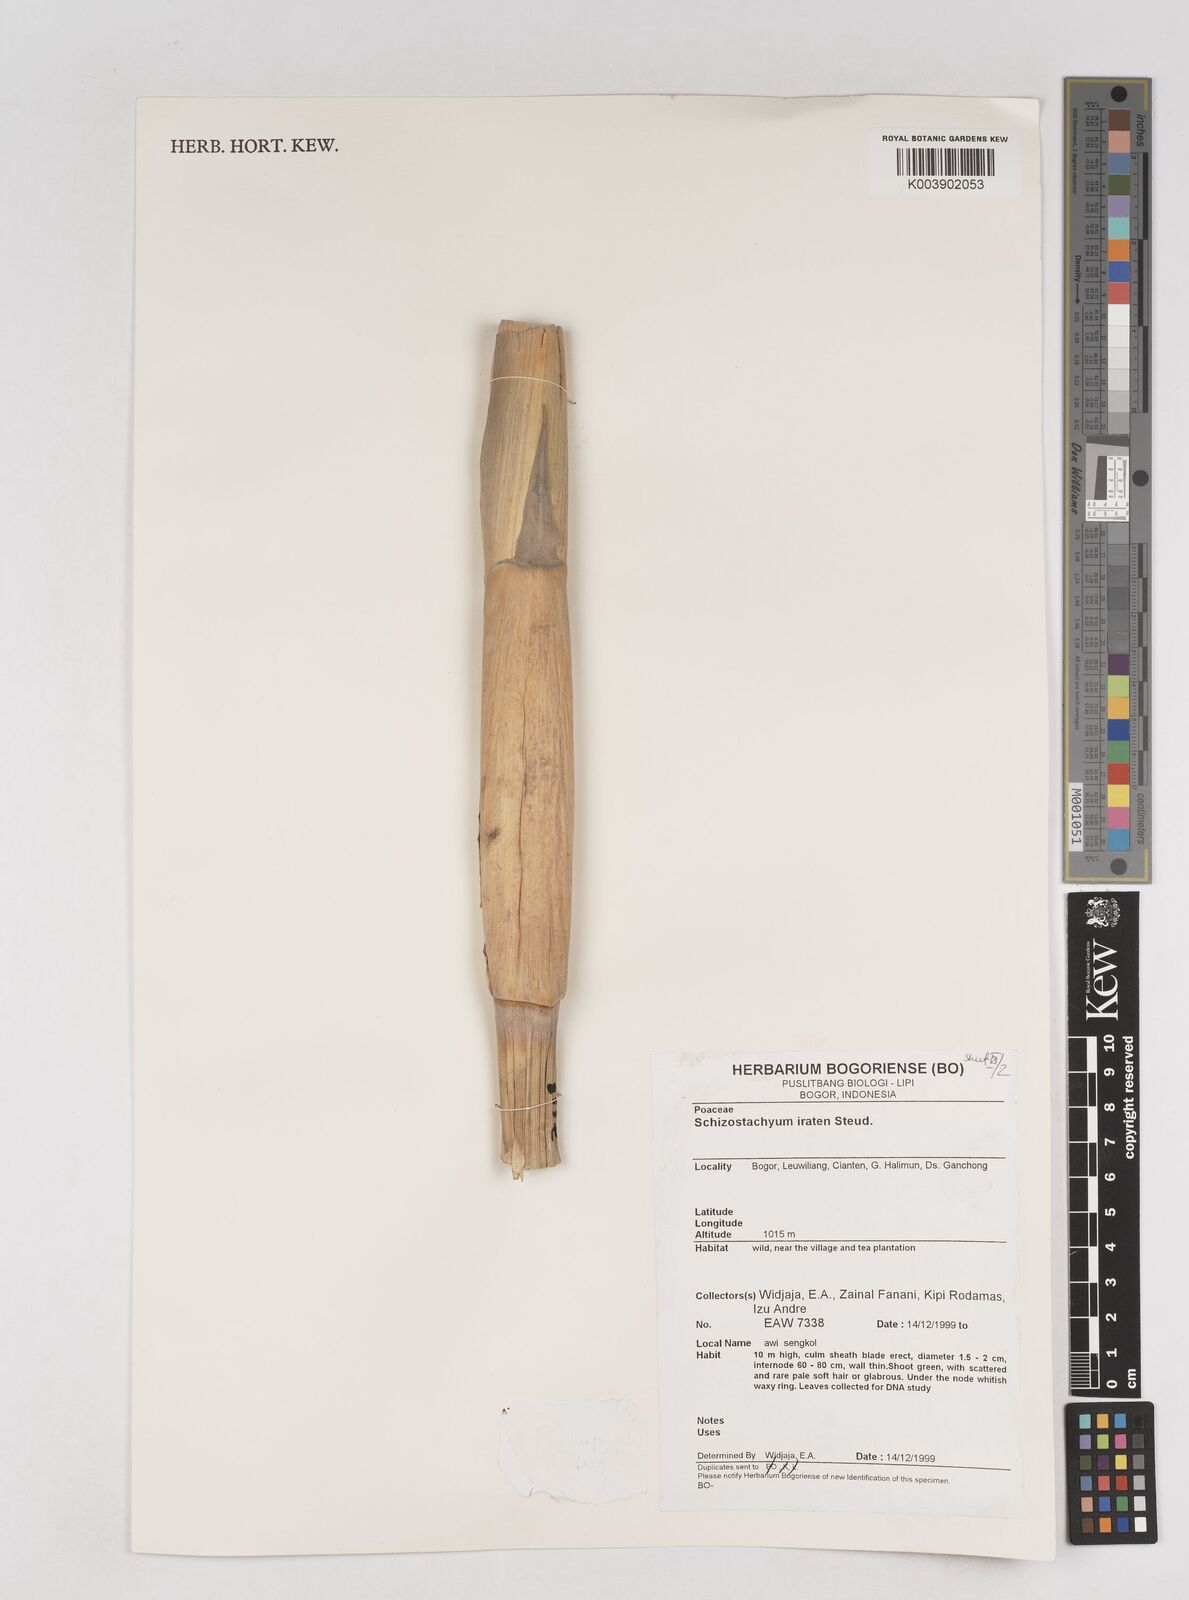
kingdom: Plantae
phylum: Tracheophyta
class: Liliopsida
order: Poales
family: Poaceae
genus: Schizostachyum
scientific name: Schizostachyum iraten
